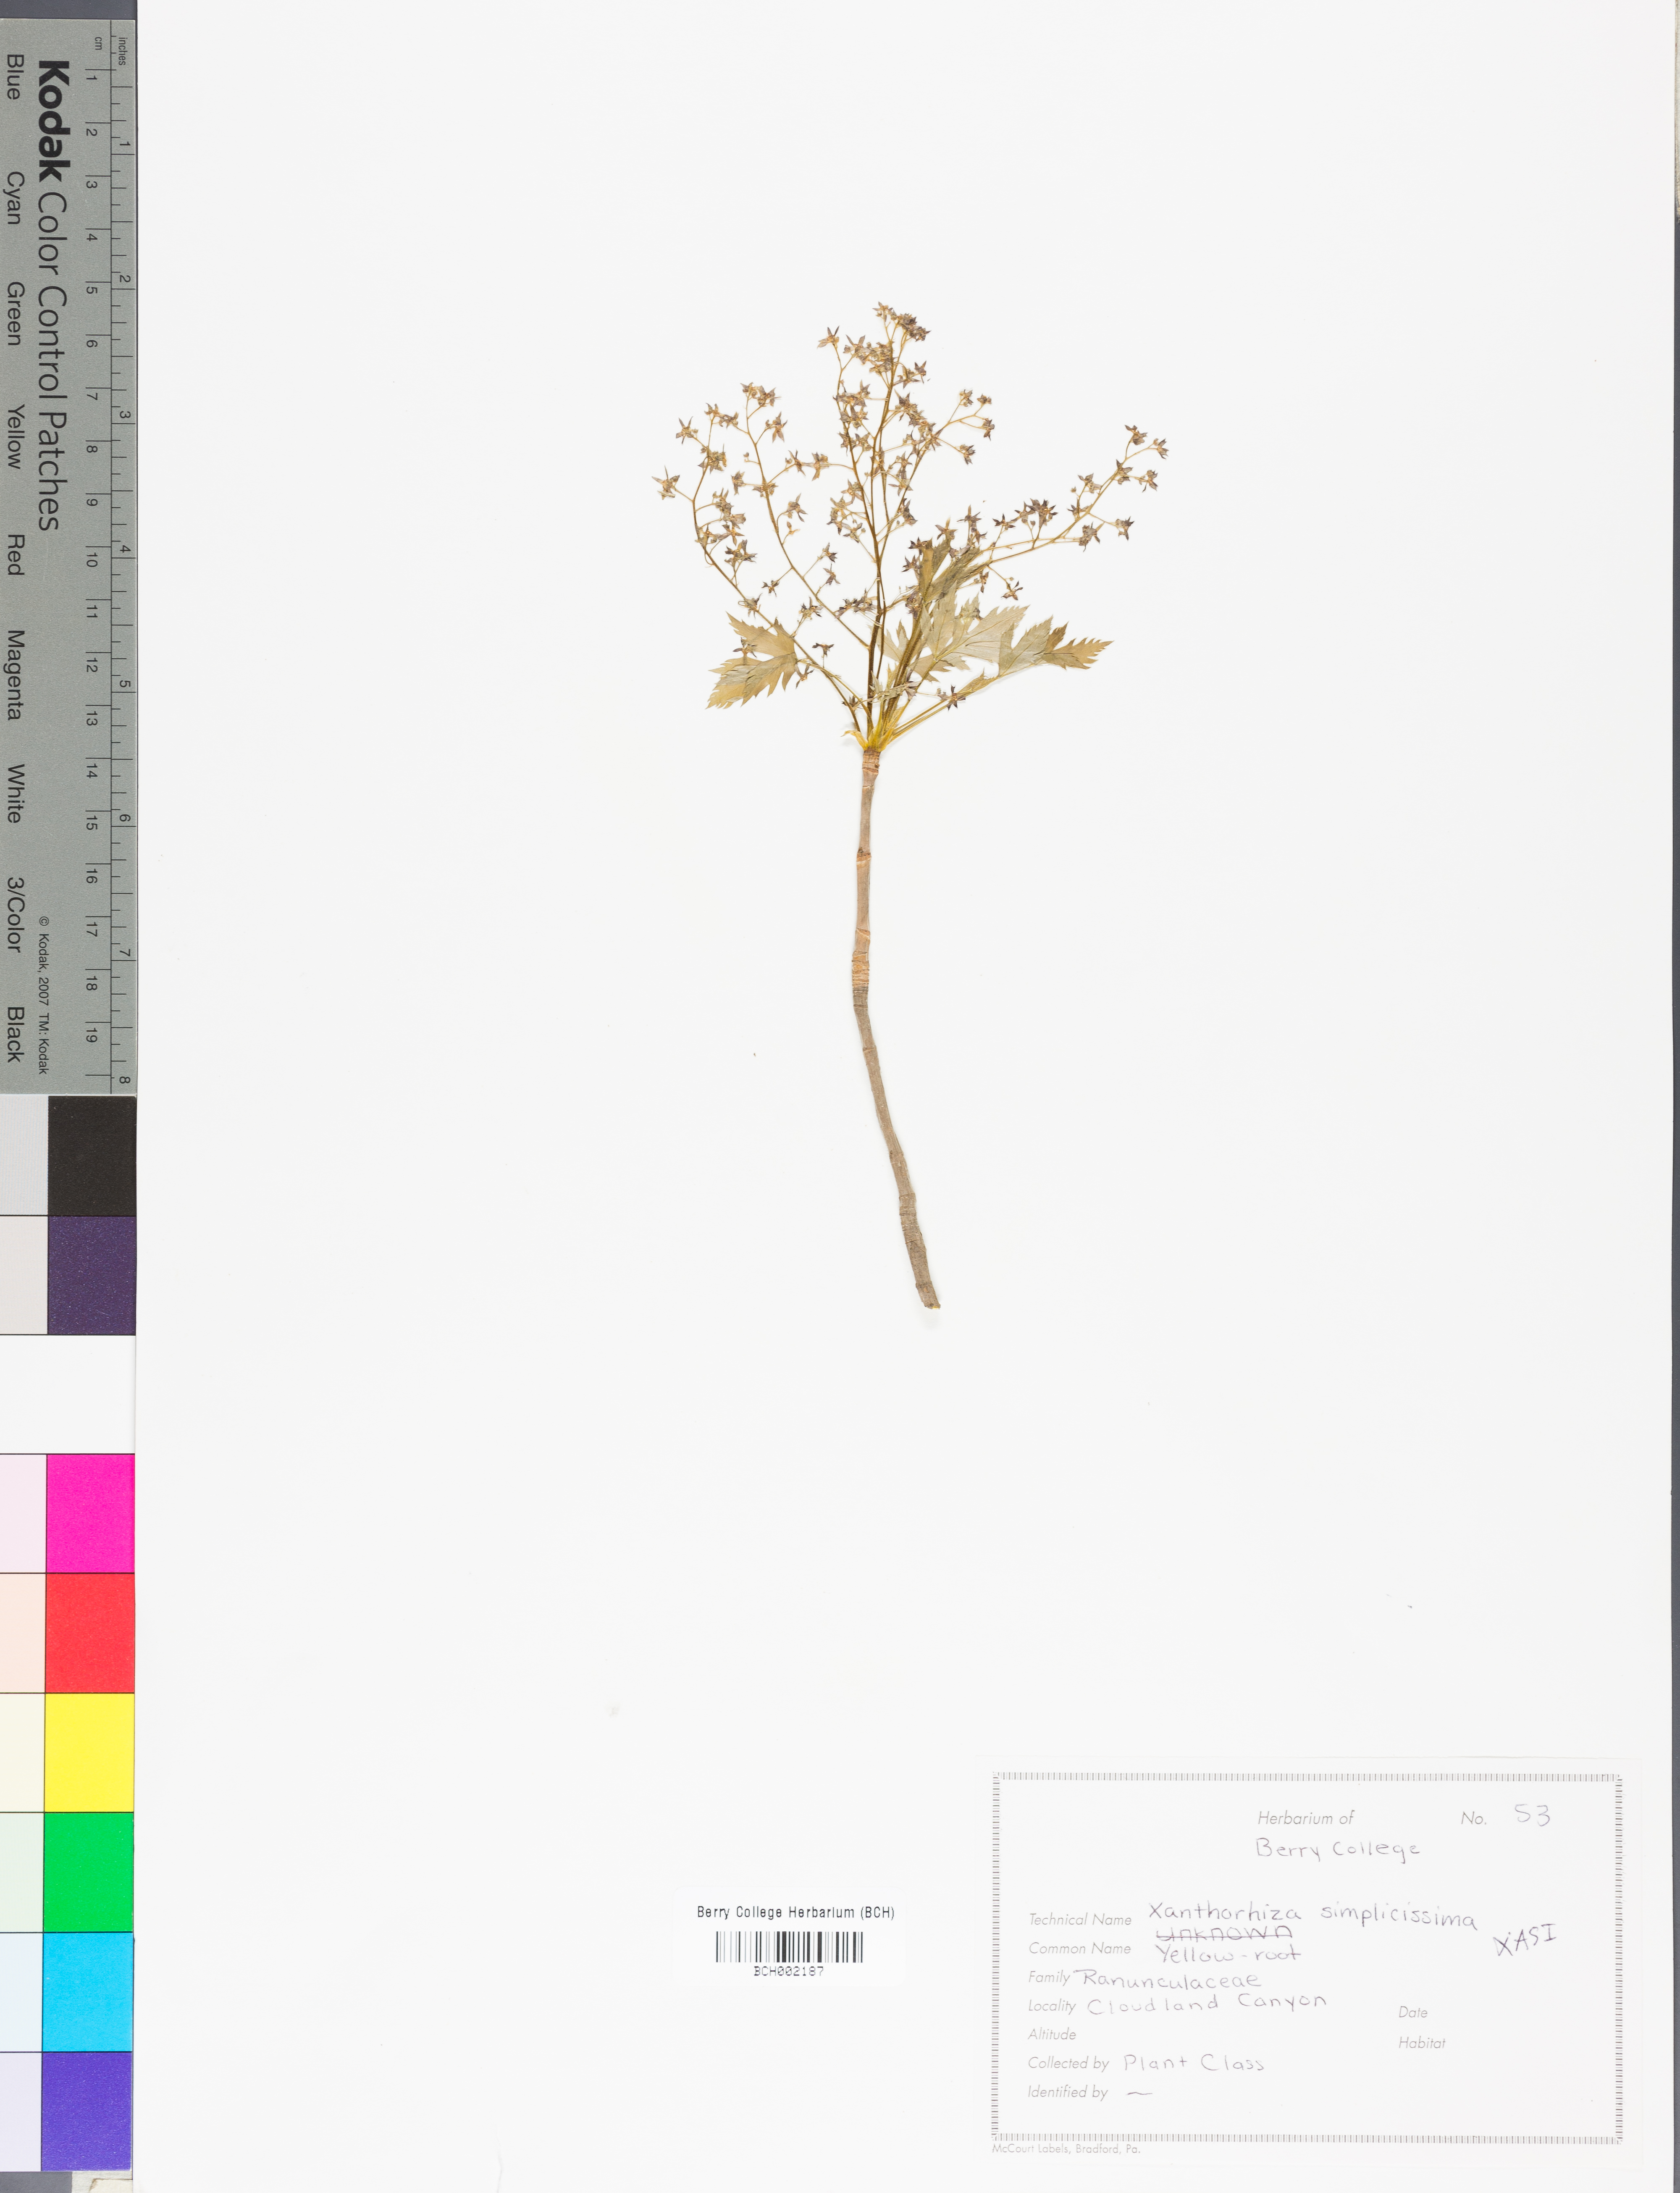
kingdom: Plantae
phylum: Tracheophyta
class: Magnoliopsida
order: Ranunculales
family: Ranunculaceae
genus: Xanthorhiza
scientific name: Xanthorhiza simplicissima
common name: Yellowroot
